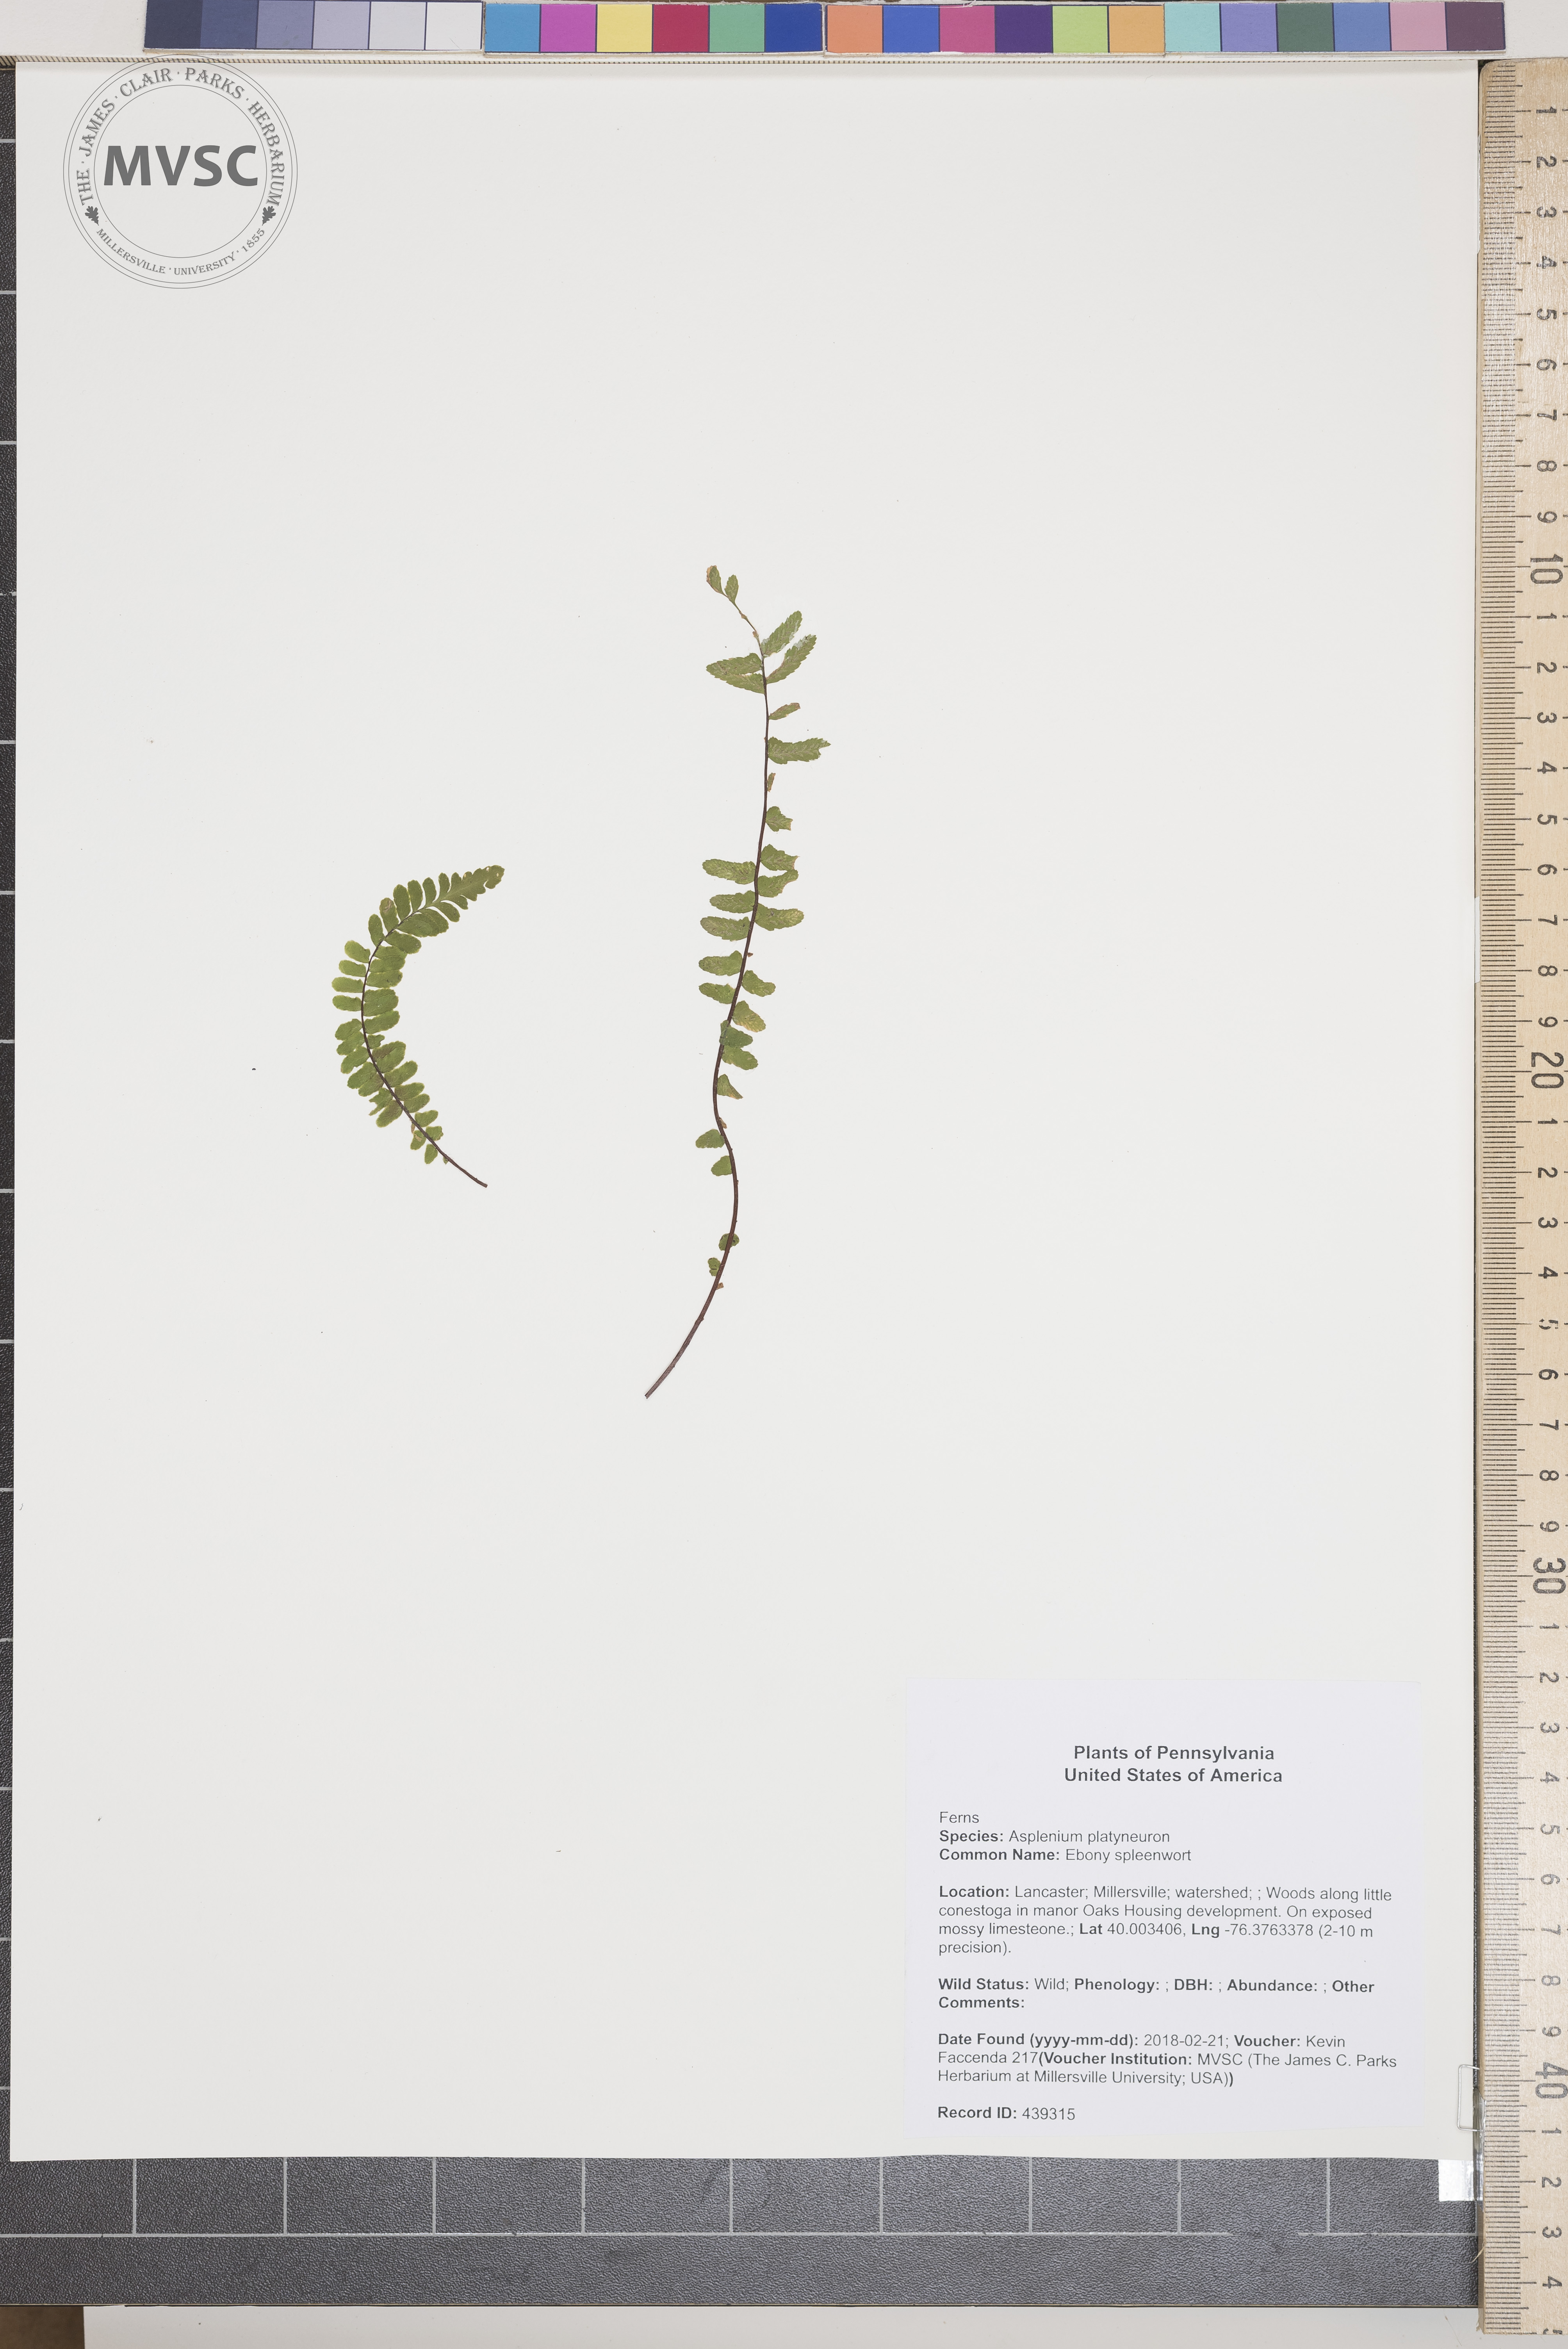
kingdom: Plantae
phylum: Tracheophyta
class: Polypodiopsida
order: Polypodiales
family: Aspleniaceae
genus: Asplenium
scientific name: Asplenium platyneuron
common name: Ebony spleenwort
